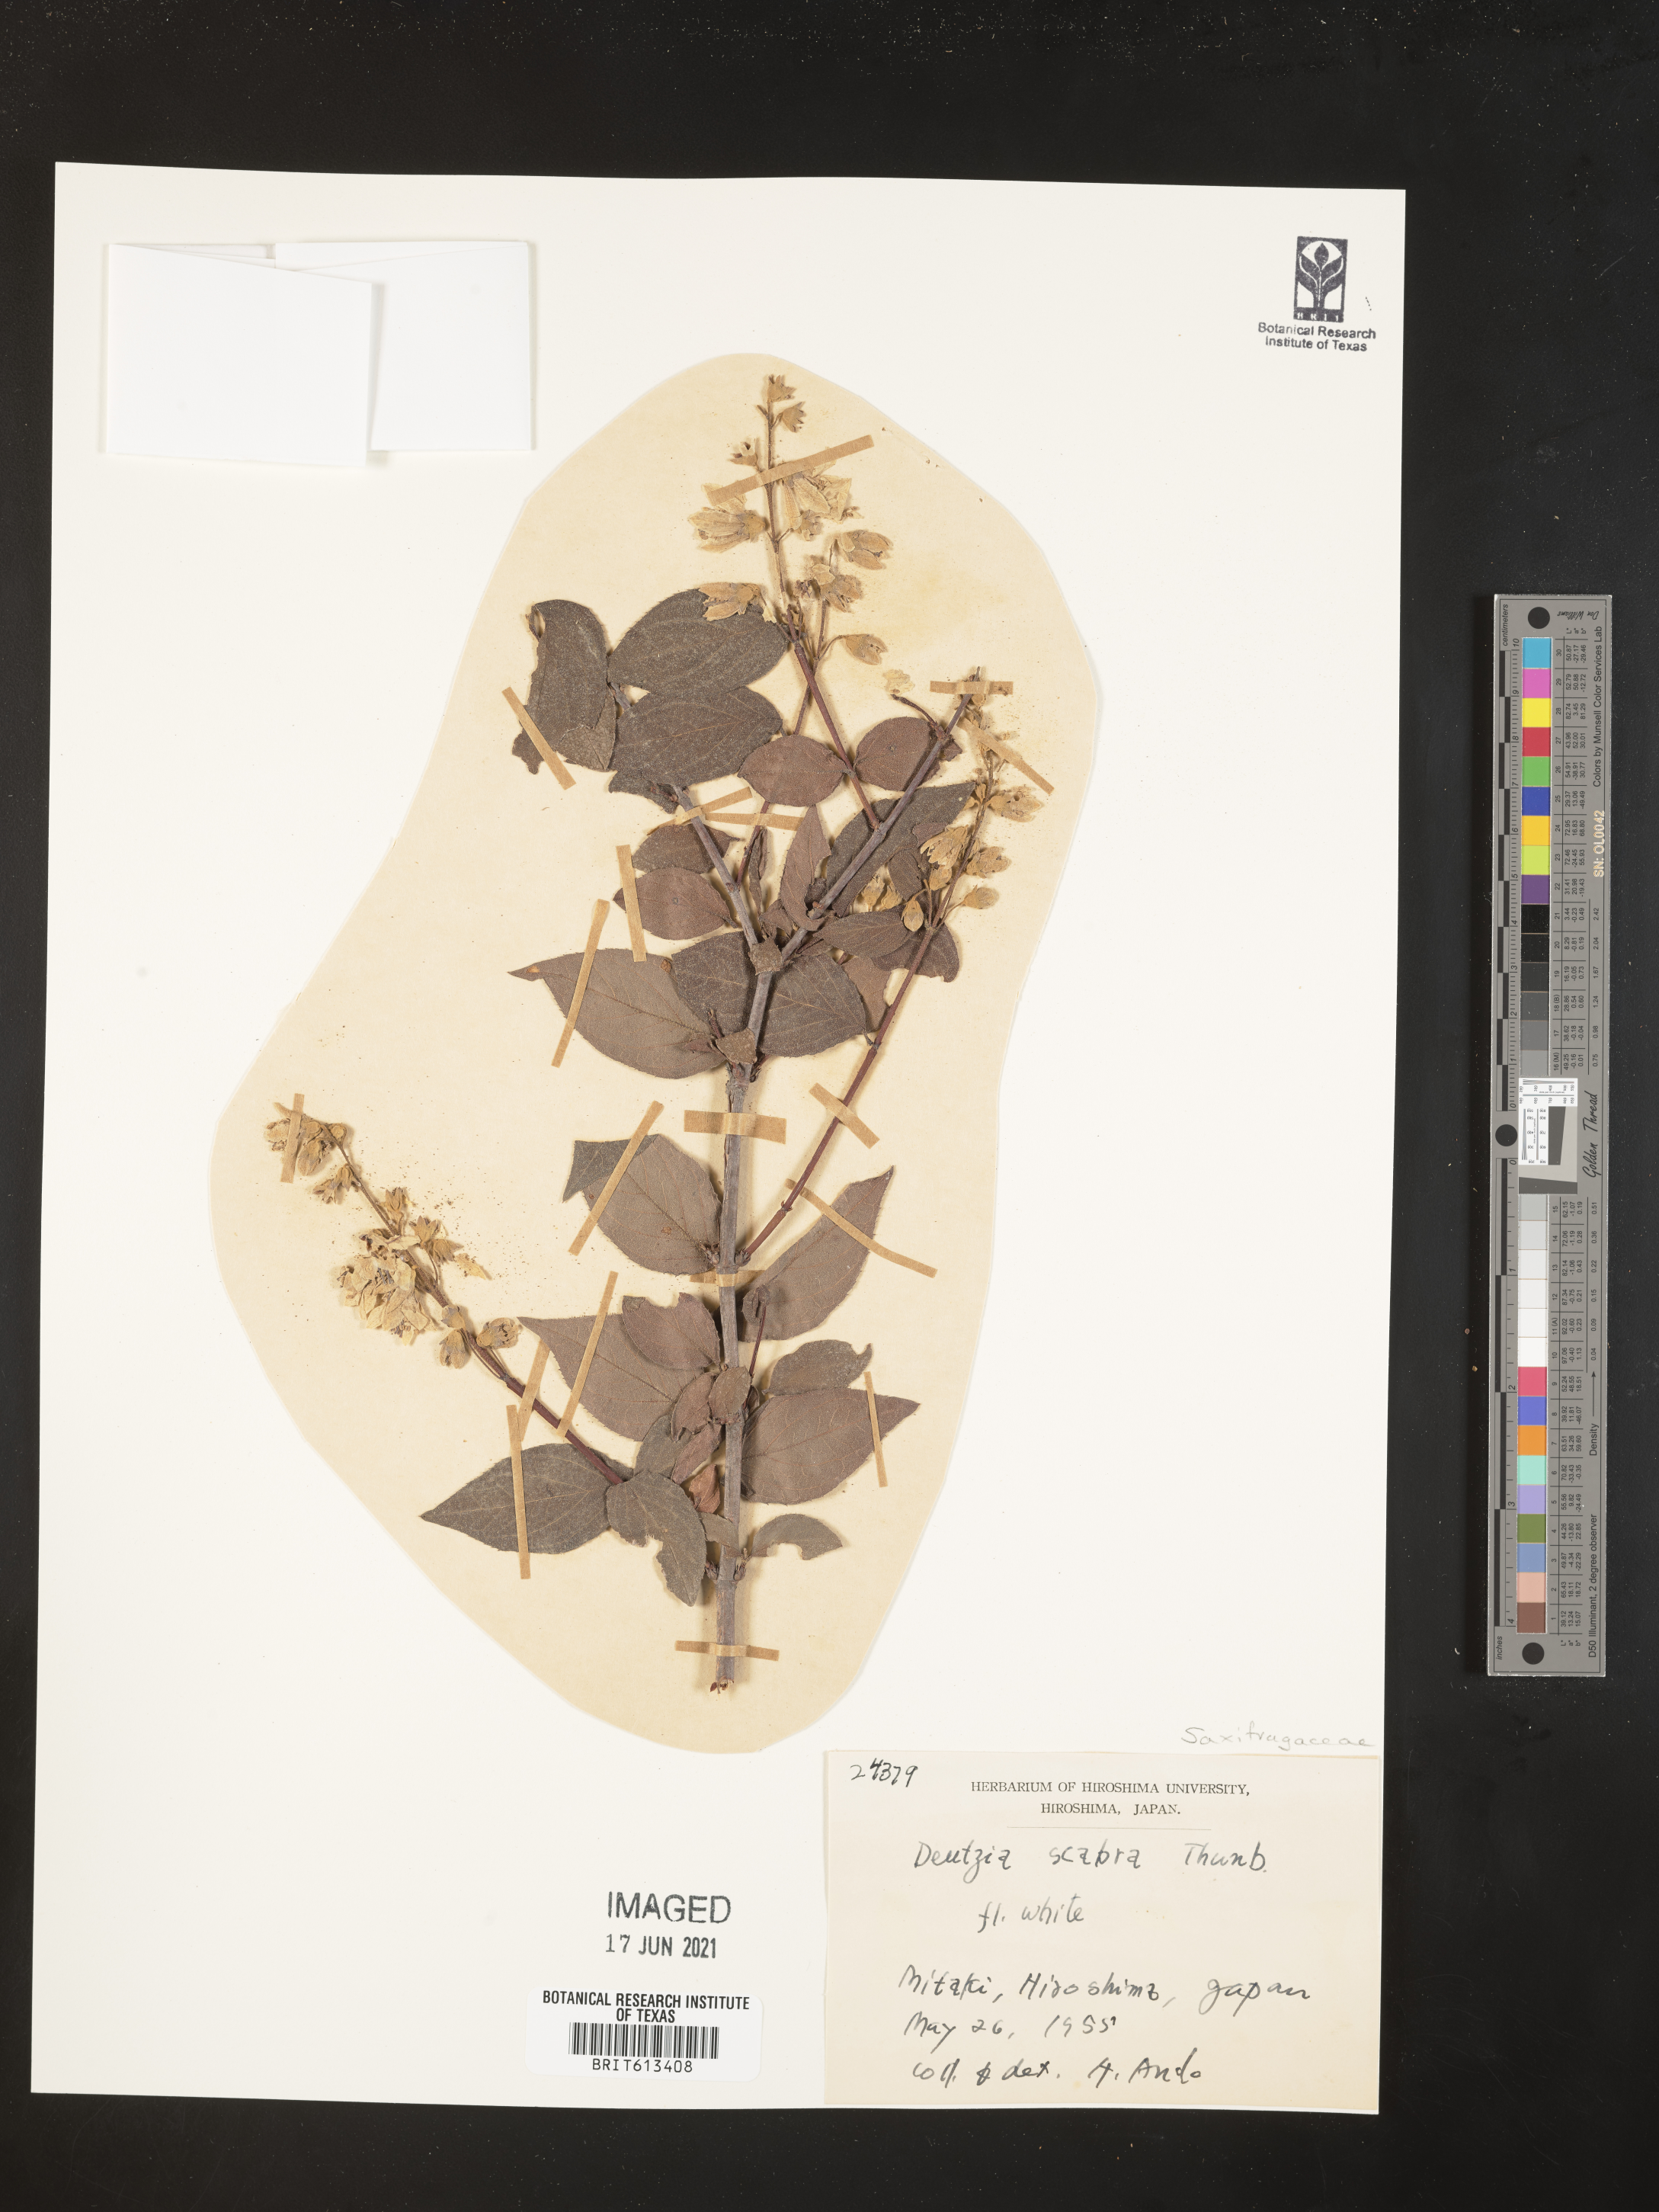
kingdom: Plantae
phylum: Tracheophyta
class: Magnoliopsida
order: Cornales
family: Hydrangeaceae
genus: Deutzia
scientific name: Deutzia scabra
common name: Deutzia
